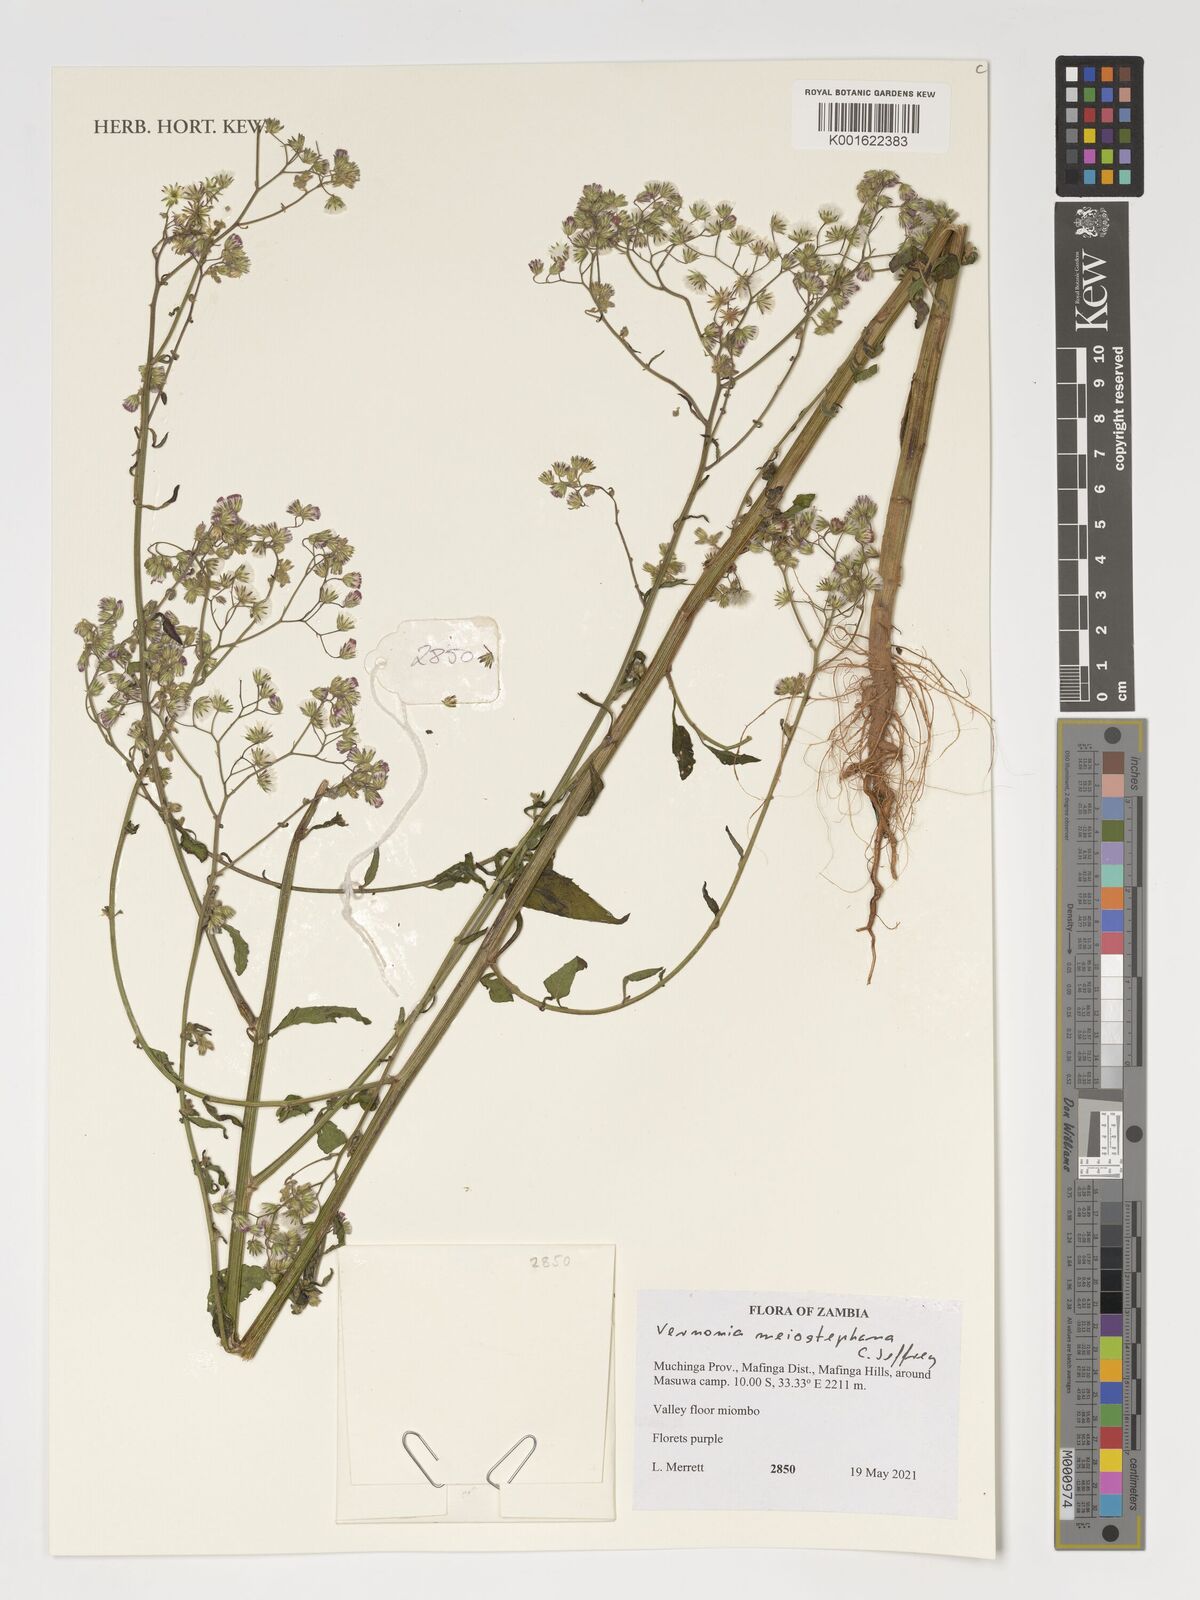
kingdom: Plantae
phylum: Tracheophyta
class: Magnoliopsida
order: Asterales
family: Asteraceae
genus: Cyanthillium
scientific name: Cyanthillium vernonioides
